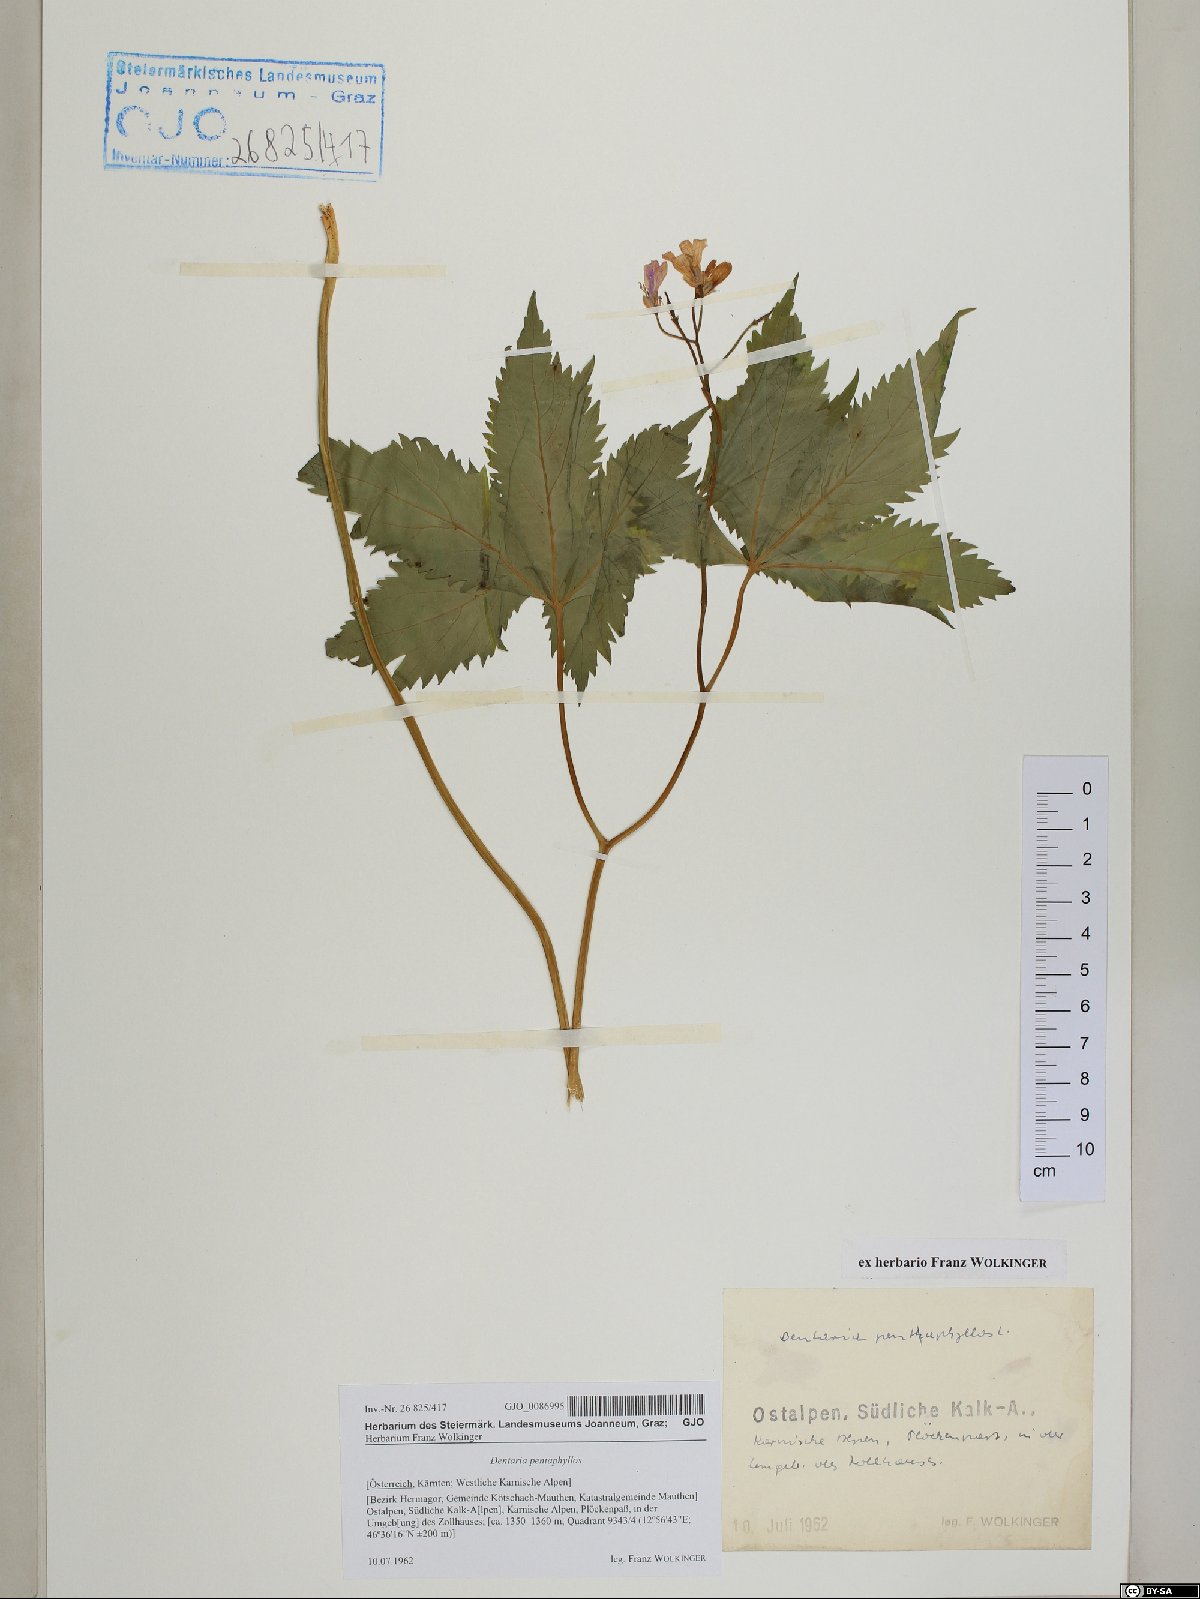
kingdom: Plantae
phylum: Tracheophyta
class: Magnoliopsida
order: Brassicales
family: Brassicaceae
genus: Cardamine
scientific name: Cardamine pentaphyllos
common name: Five-leaflet bitter-cress
